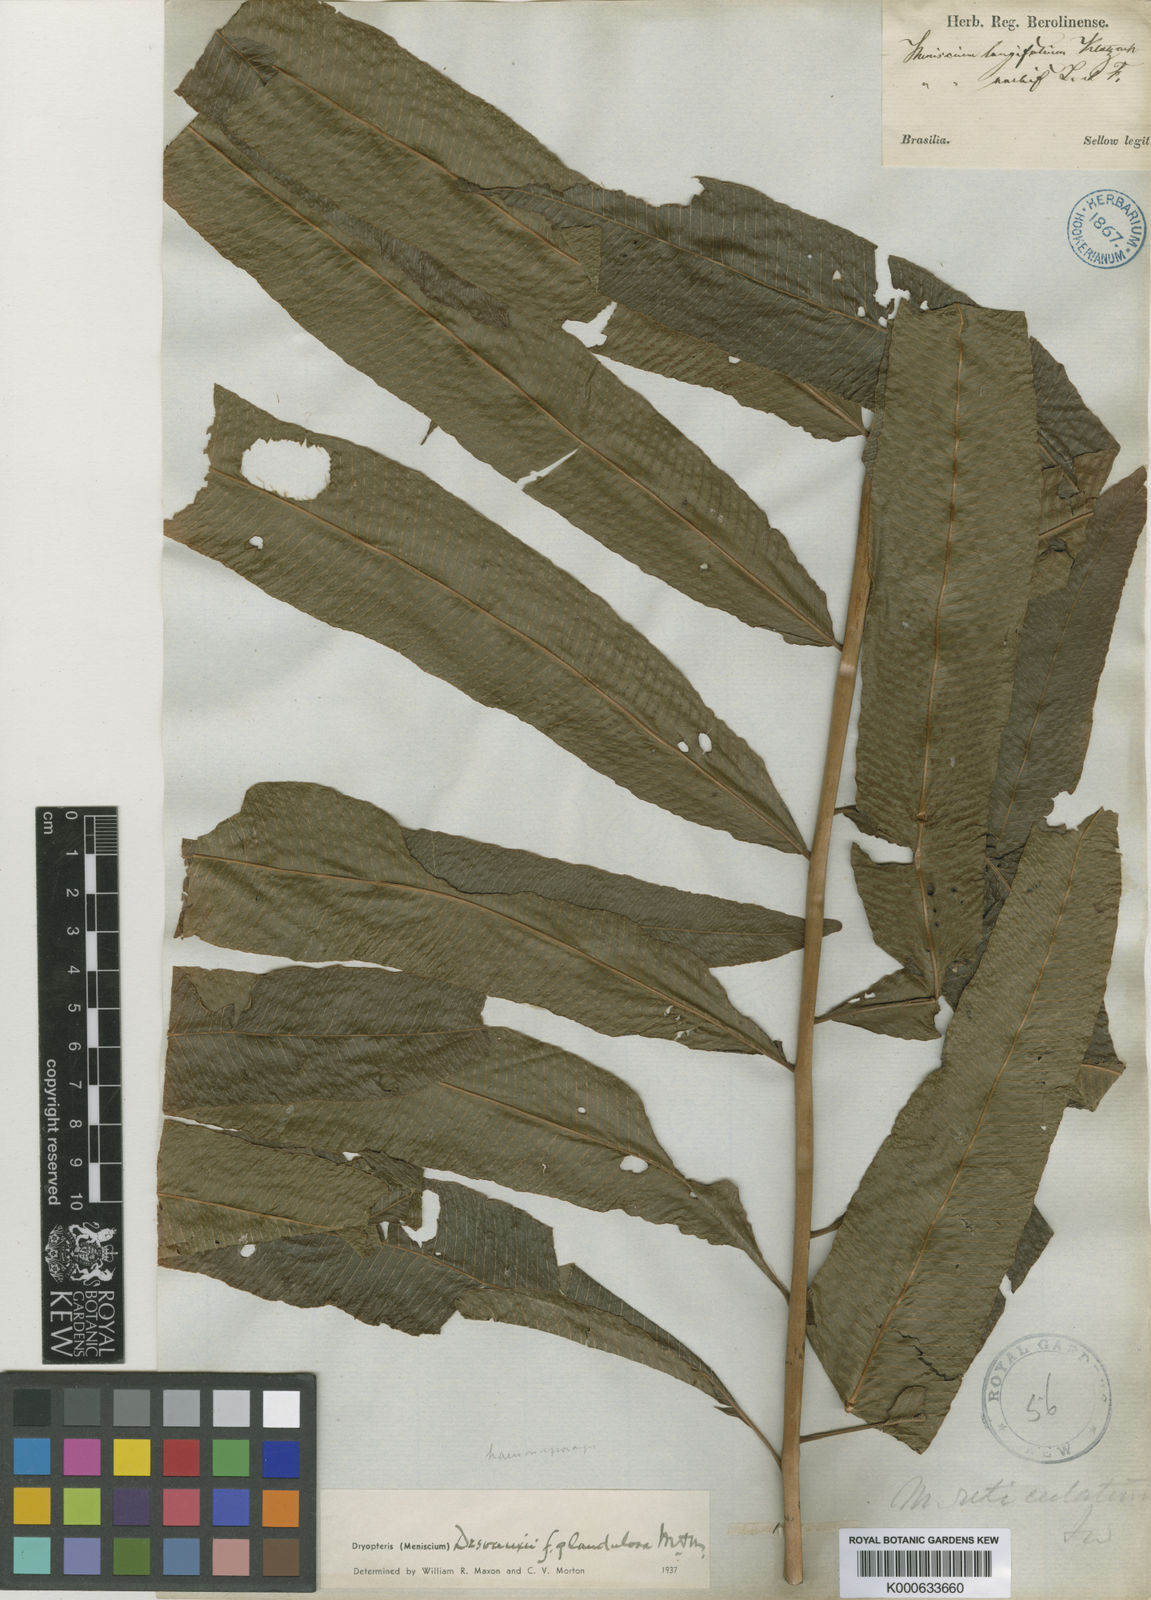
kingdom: Plantae
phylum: Tracheophyta
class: Polypodiopsida
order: Polypodiales
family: Thelypteridaceae
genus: Meniscium
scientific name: Meniscium maxonianum
